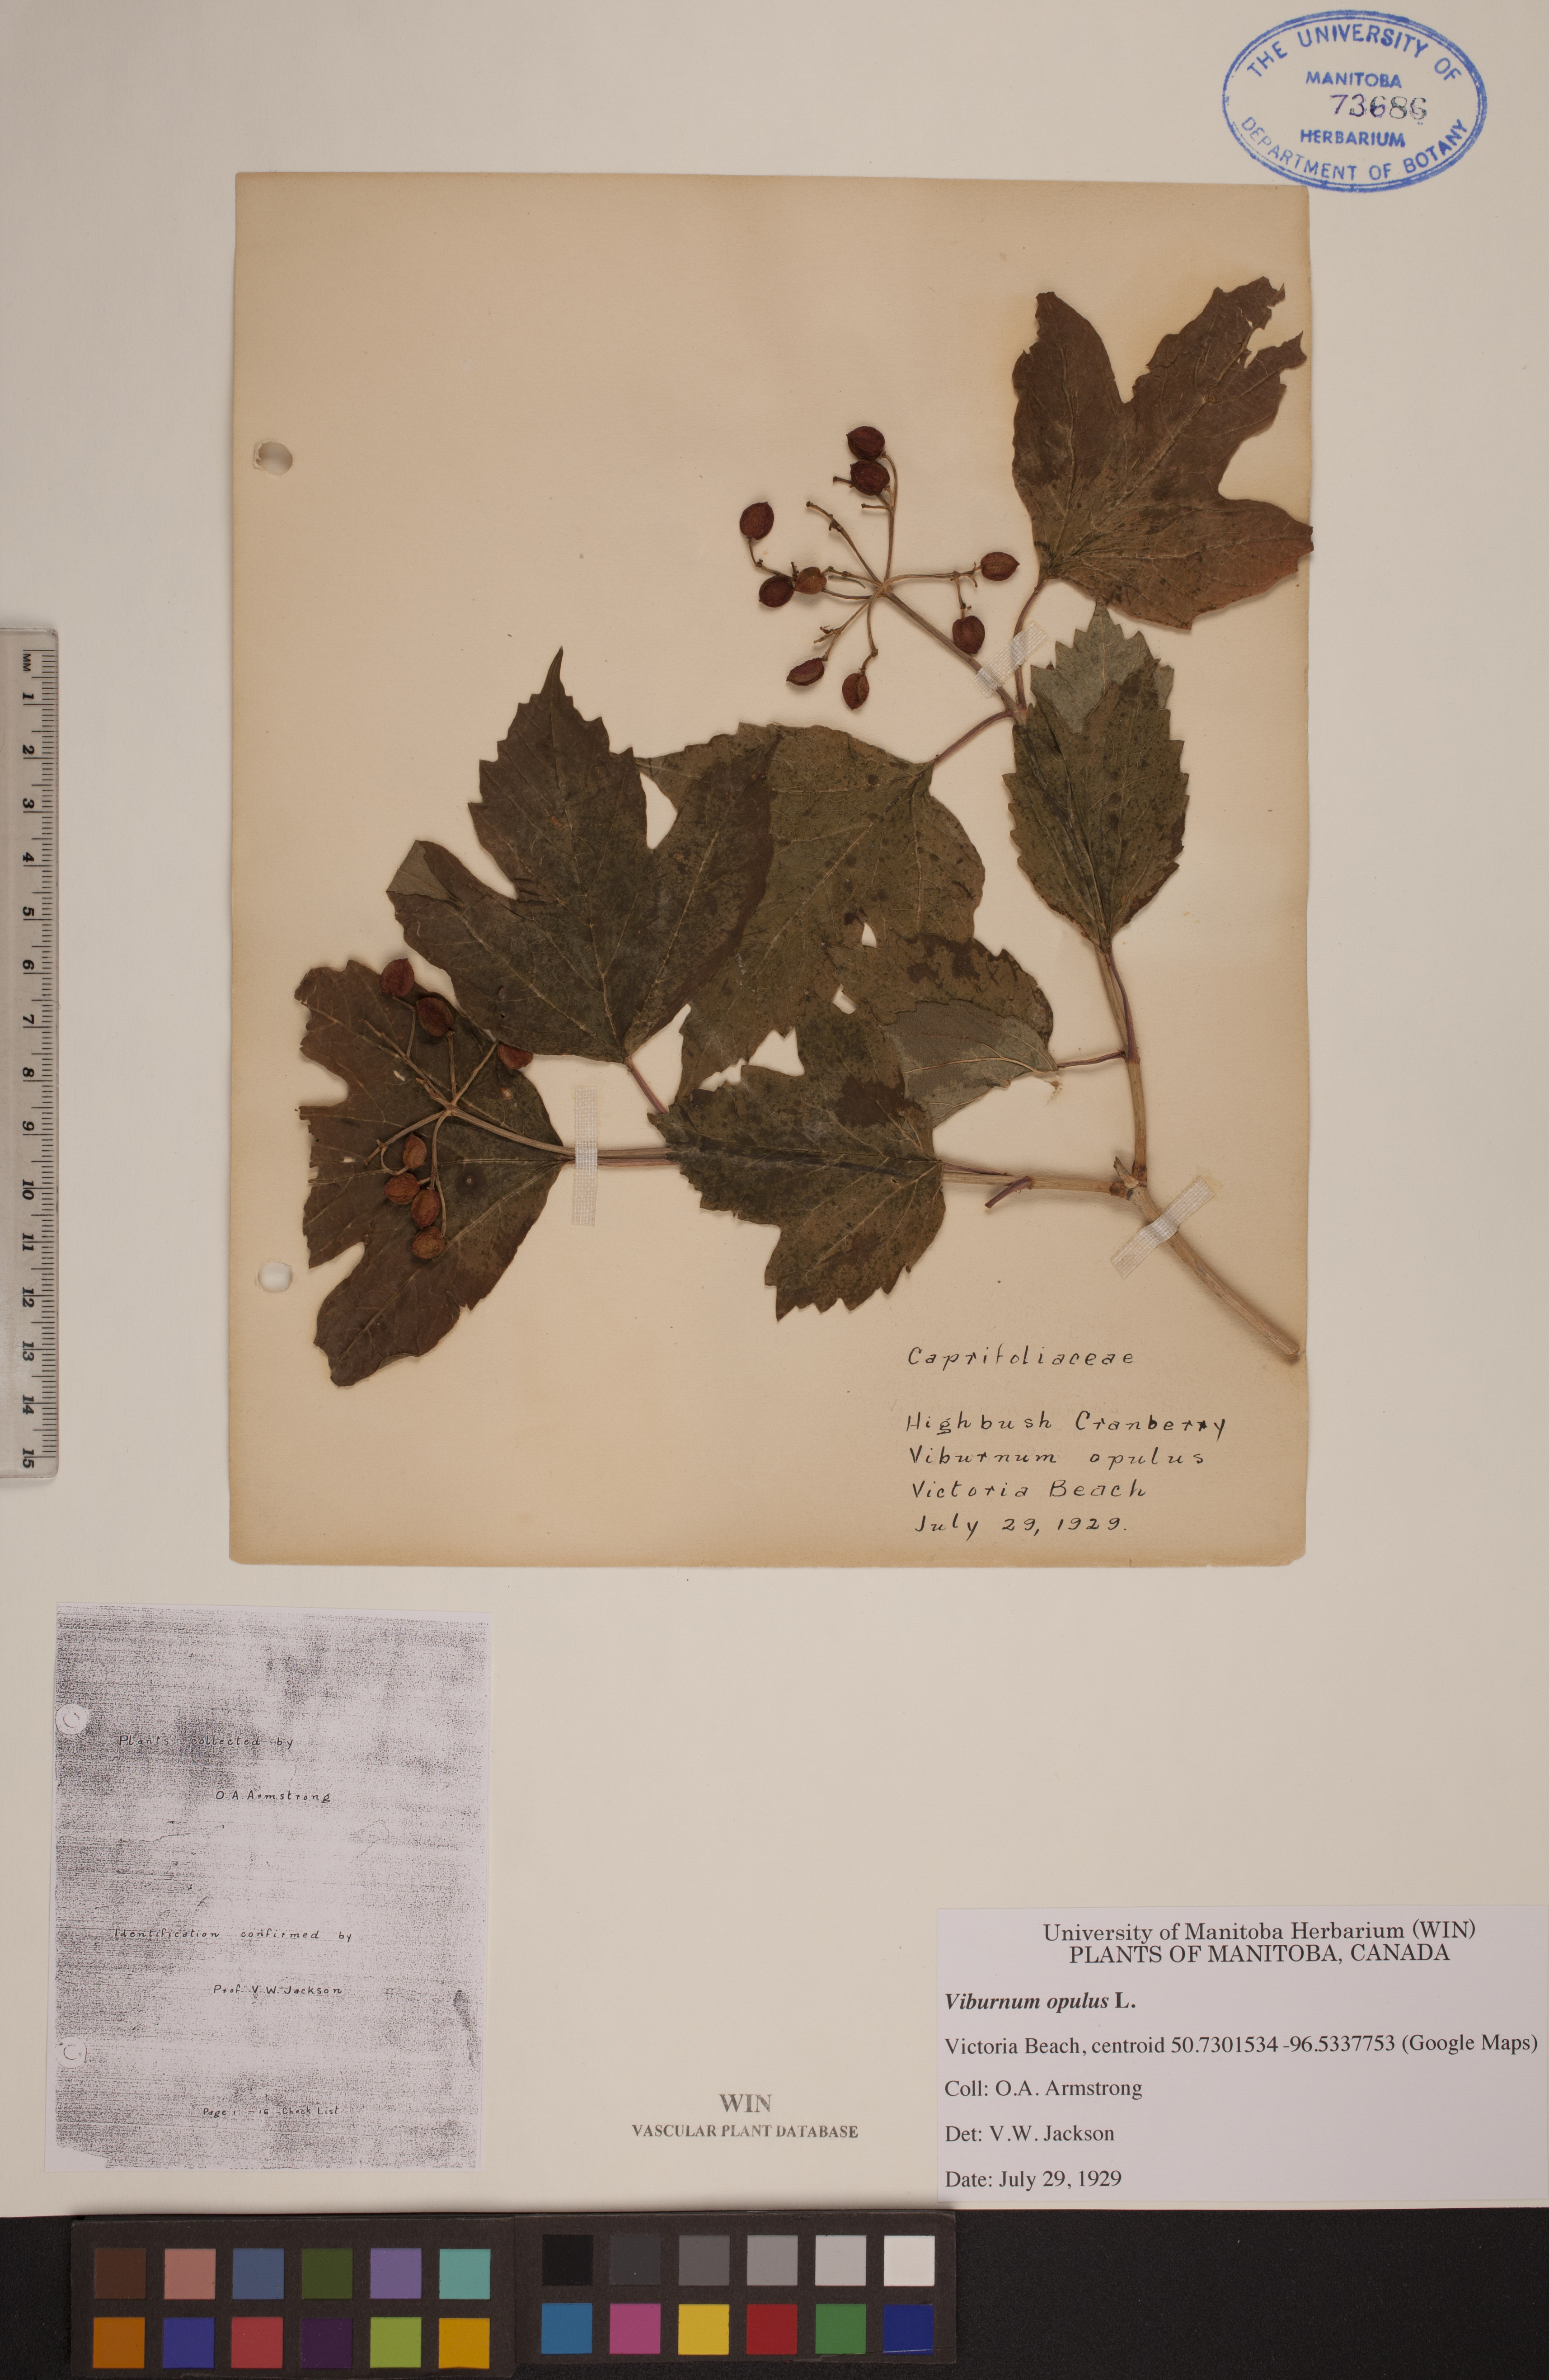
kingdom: Plantae
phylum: Tracheophyta
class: Magnoliopsida
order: Dipsacales
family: Viburnaceae
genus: Viburnum
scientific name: Viburnum trilobum
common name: American cranberrybush
